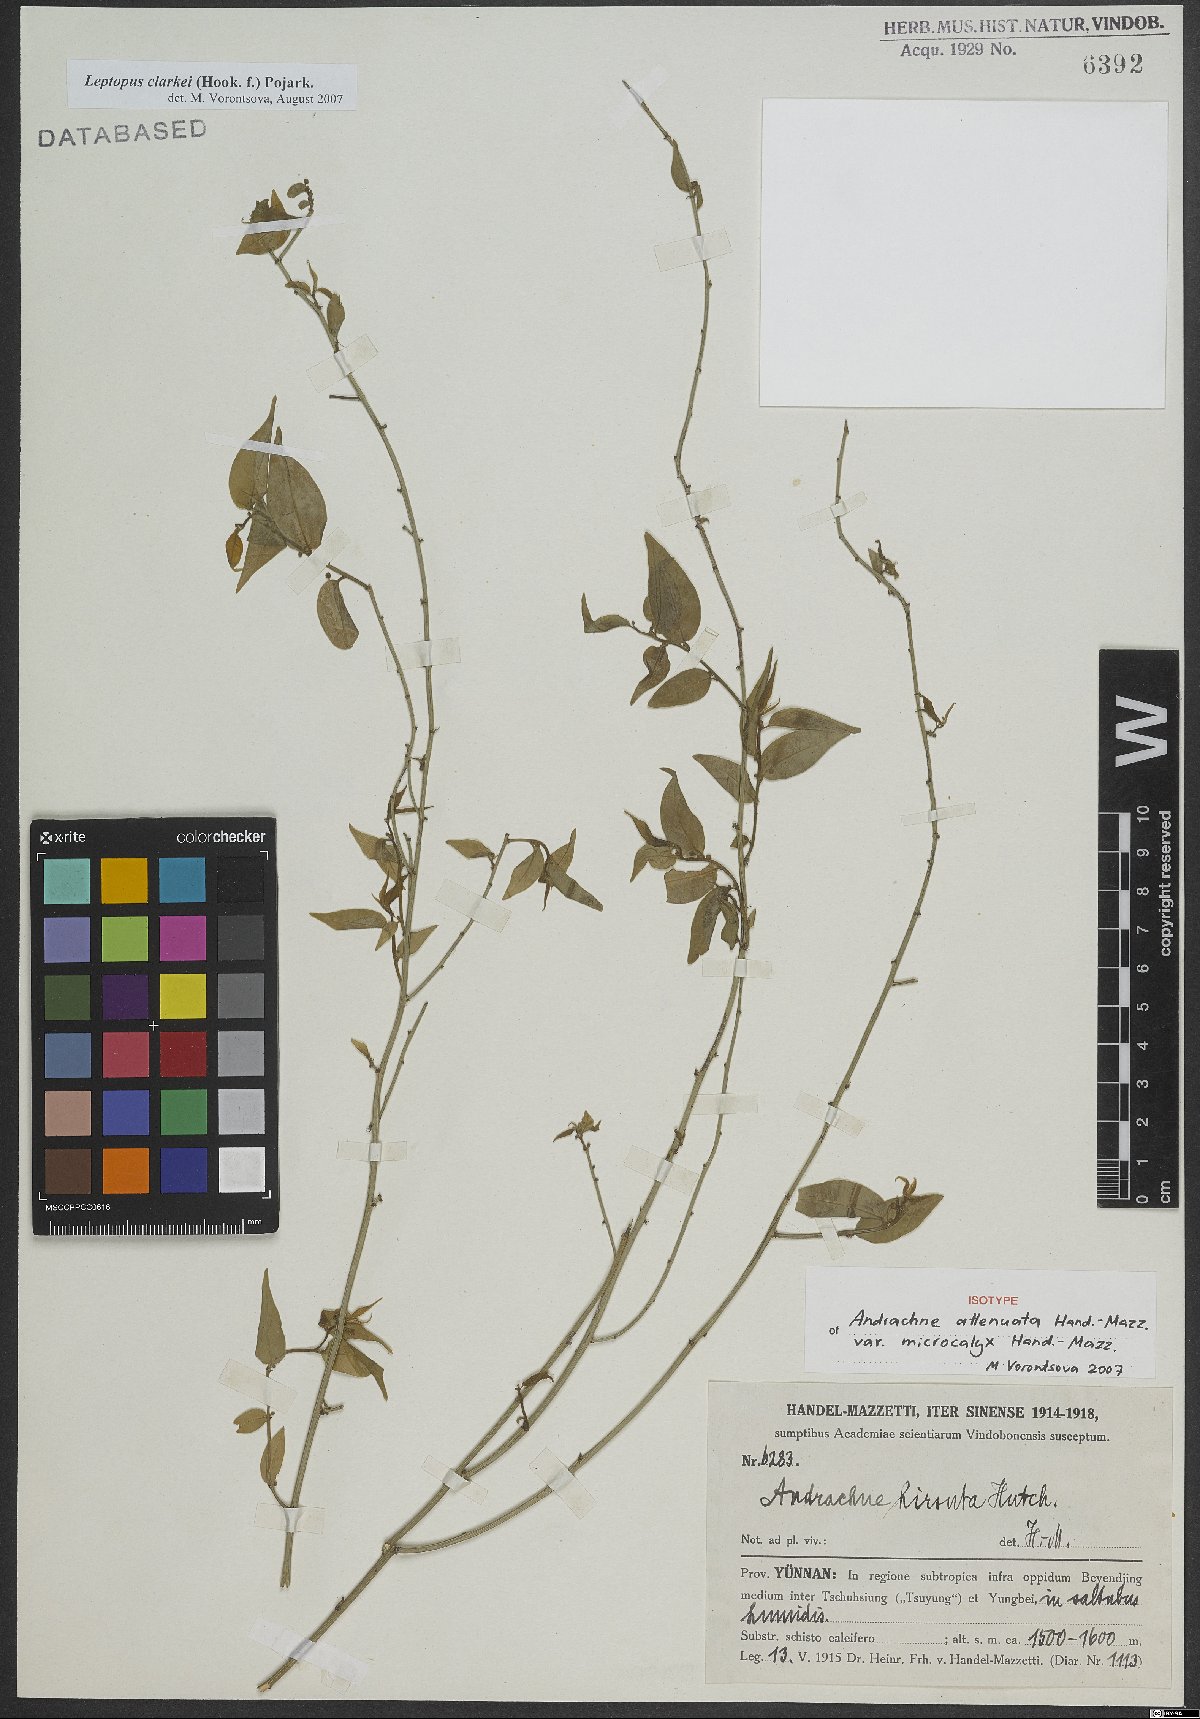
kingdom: Plantae
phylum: Tracheophyta
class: Magnoliopsida
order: Malpighiales
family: Phyllanthaceae
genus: Leptopus
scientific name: Leptopus clarkei
